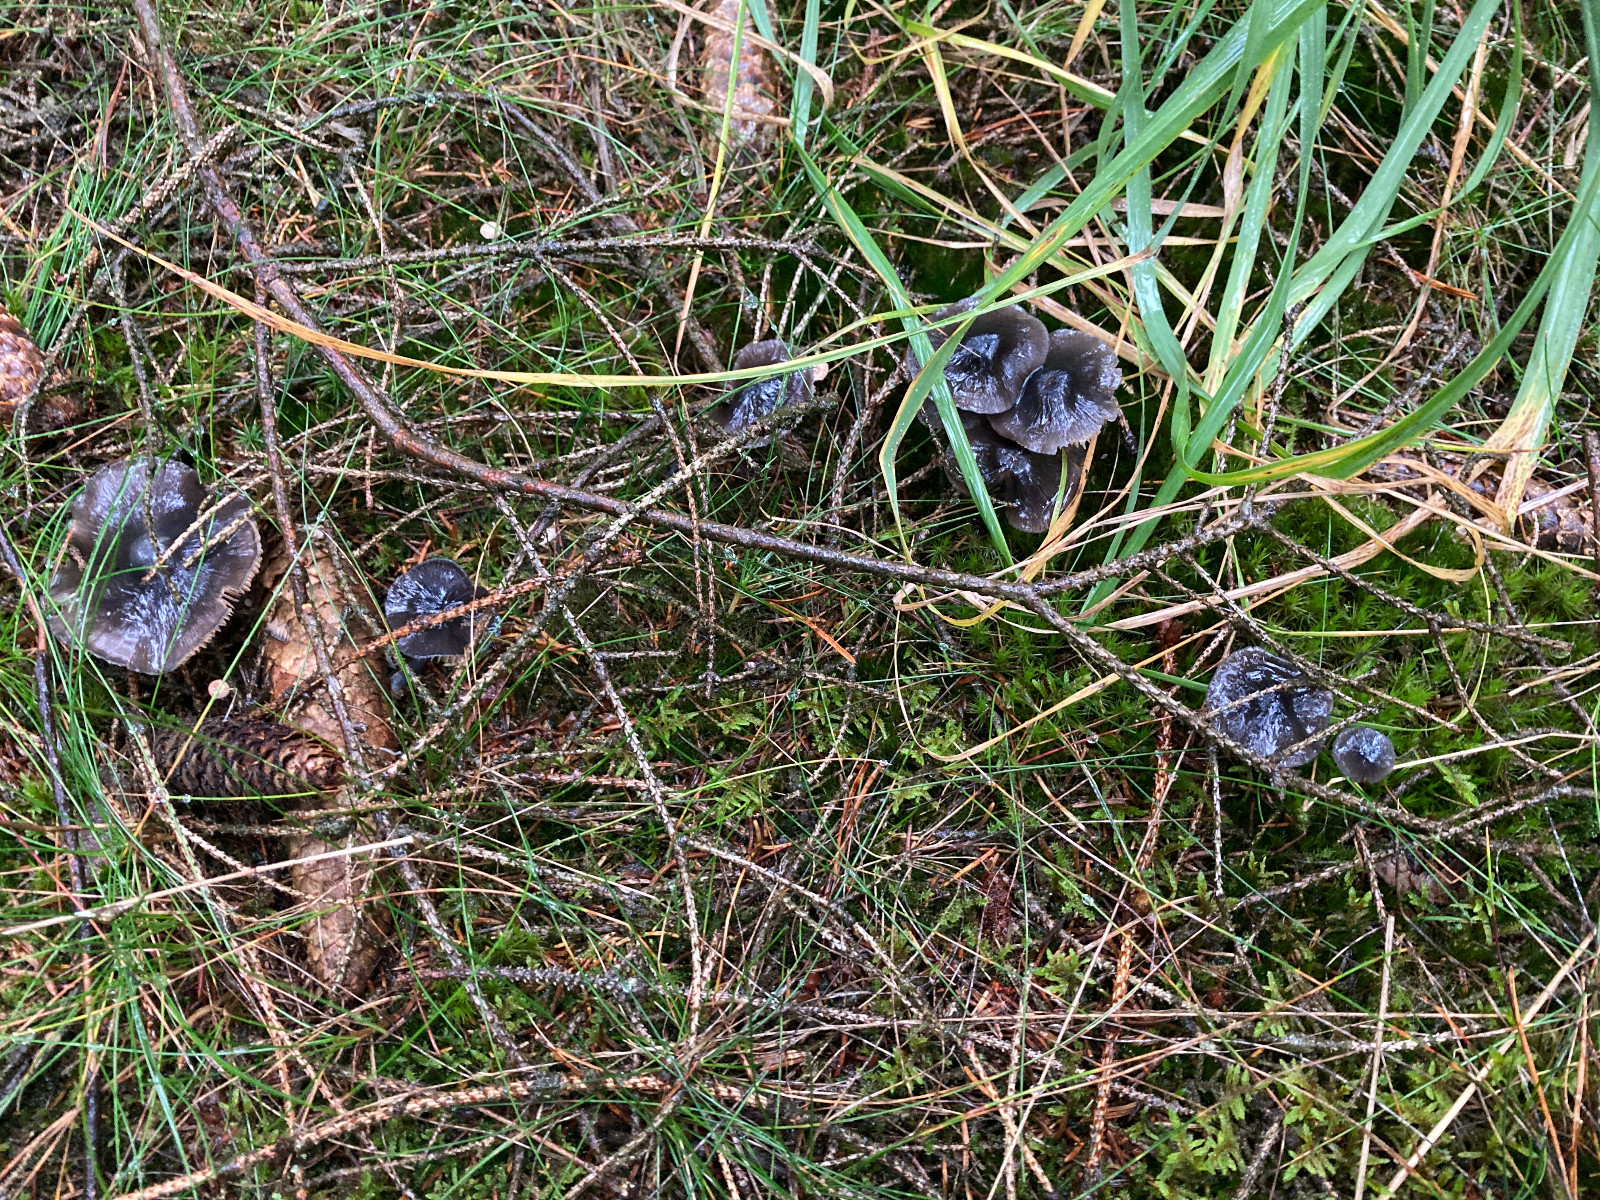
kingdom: Fungi
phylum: Basidiomycota
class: Agaricomycetes
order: Agaricales
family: Entolomataceae
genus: Entocybe
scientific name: Entocybe nitida
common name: stålblå rødblad
